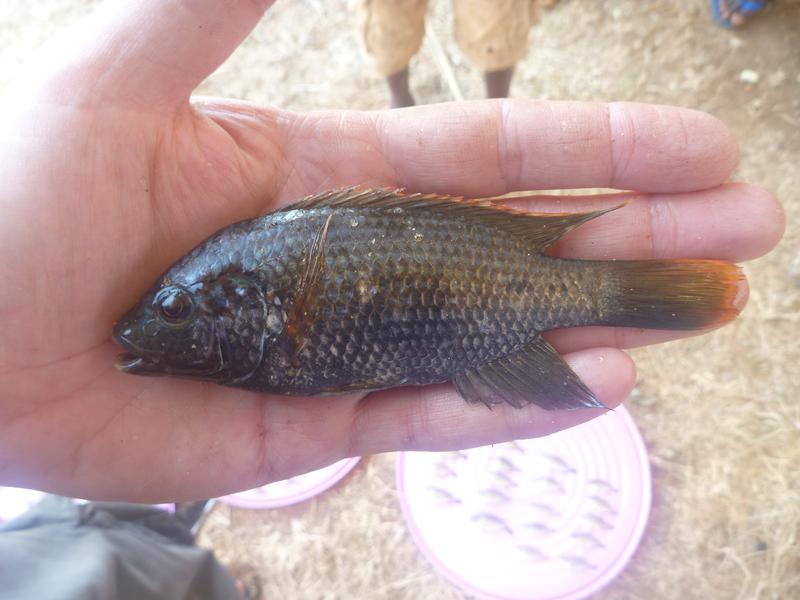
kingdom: Animalia
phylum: Chordata
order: Perciformes
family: Cichlidae
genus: Oreochromis
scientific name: Oreochromis shiranus
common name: Chilwa tilapia
